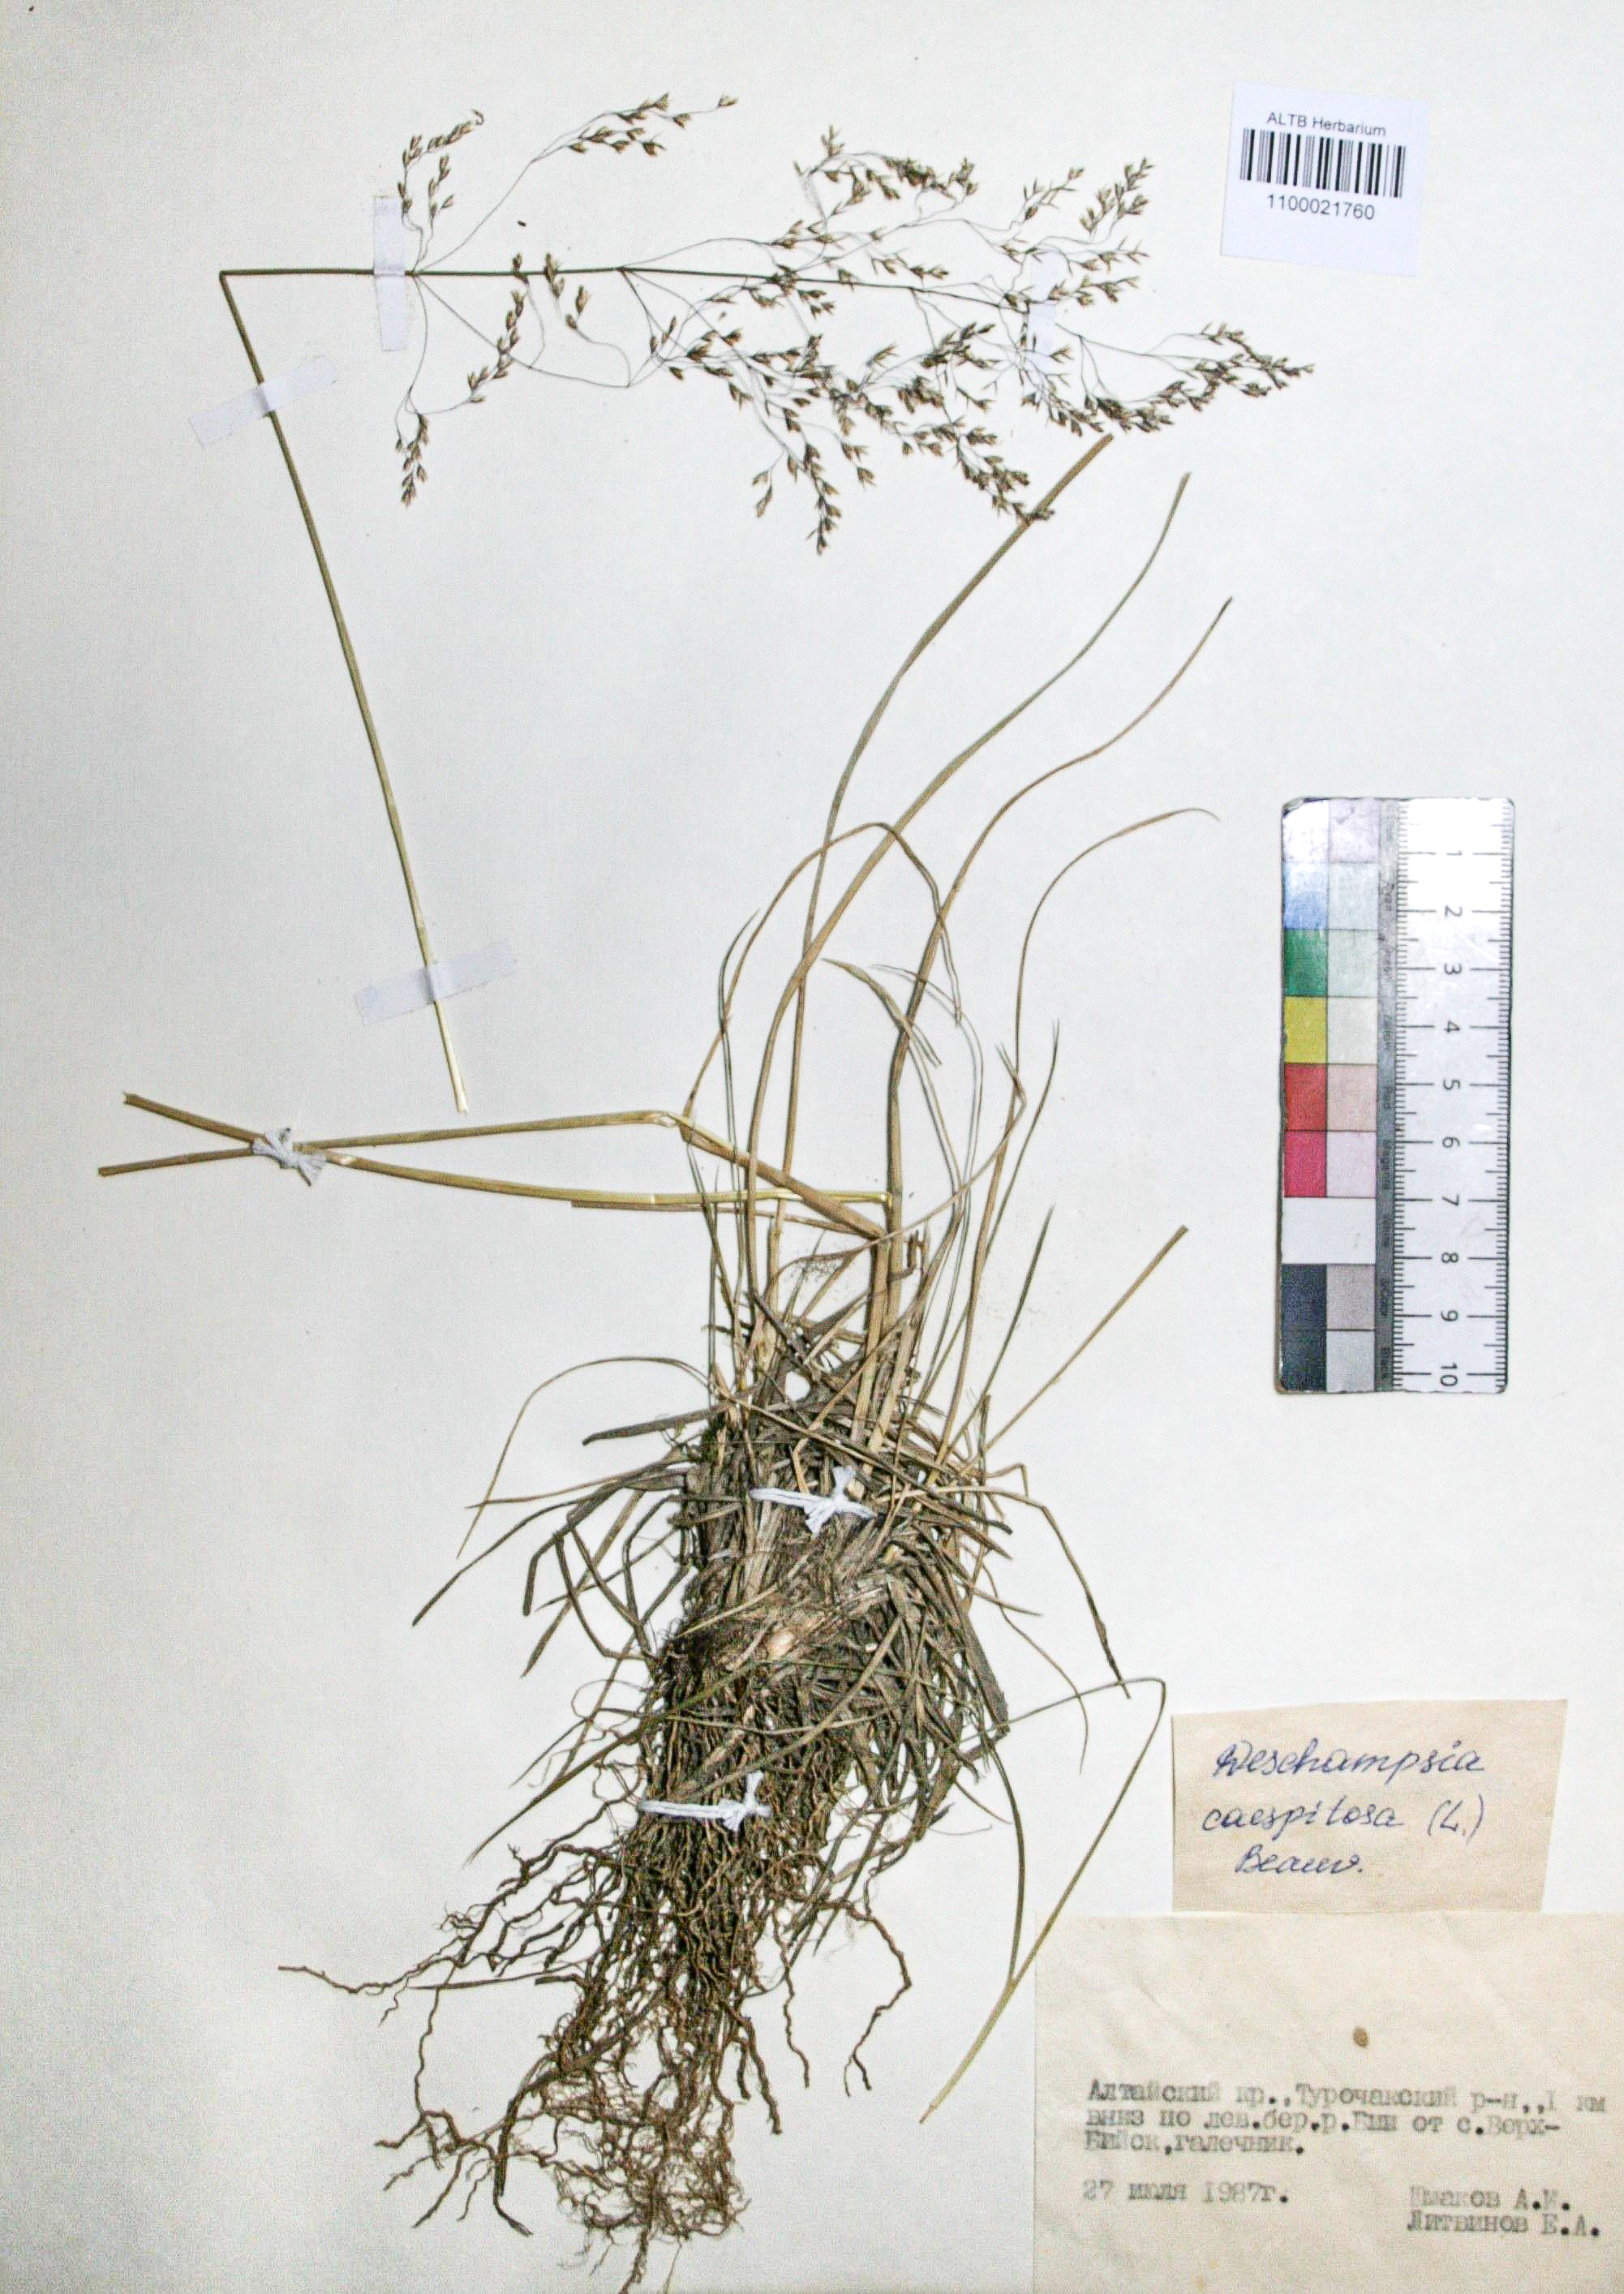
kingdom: Plantae
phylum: Tracheophyta
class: Liliopsida
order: Poales
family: Poaceae
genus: Deschampsia
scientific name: Deschampsia cespitosa
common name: Tufted hair-grass
